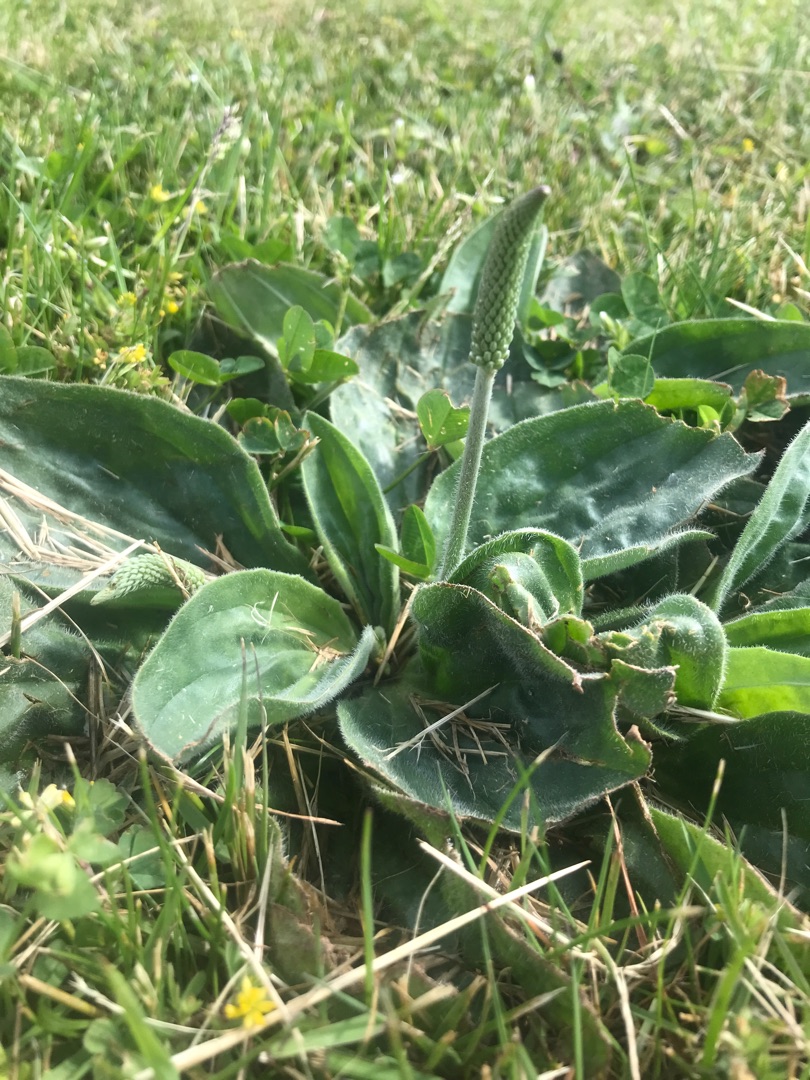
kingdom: Plantae
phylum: Tracheophyta
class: Magnoliopsida
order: Lamiales
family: Plantaginaceae
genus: Plantago
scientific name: Plantago media
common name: Dunet vejbred
